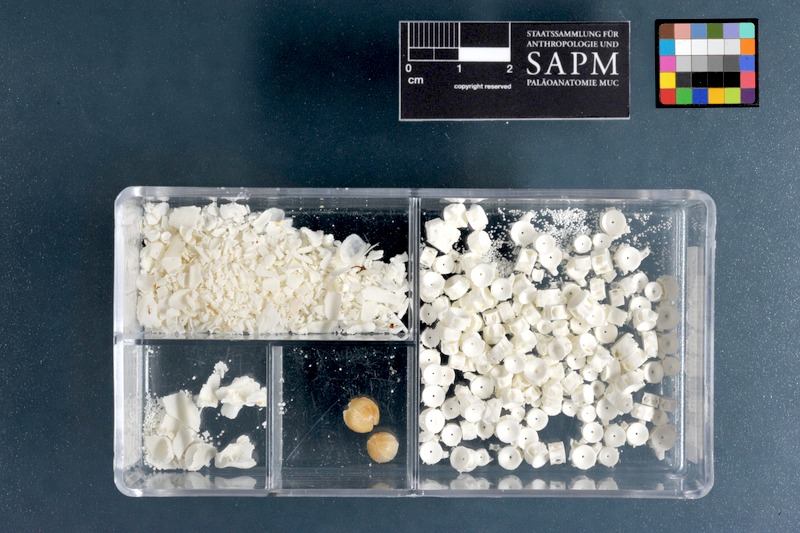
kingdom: Animalia
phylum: Chordata
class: Elasmobranchii
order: Rhinopristiformes
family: Rhinobatidae
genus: Rhinobatos
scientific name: Rhinobatos punctifer
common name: Spotted guitarfish
